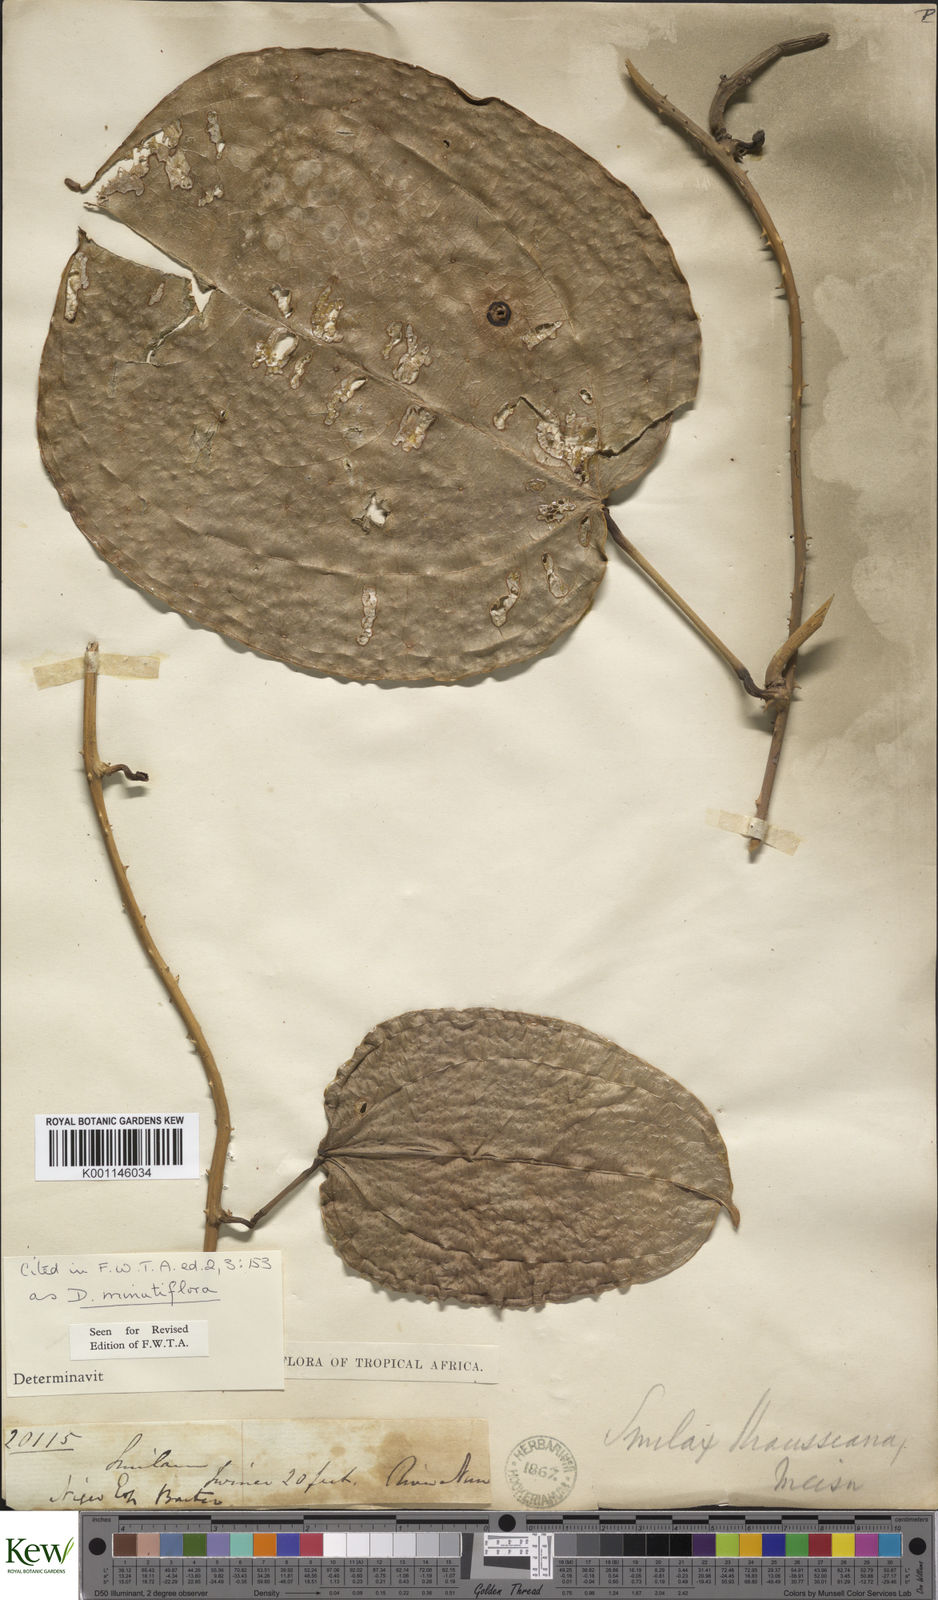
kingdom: Plantae
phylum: Tracheophyta
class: Liliopsida
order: Dioscoreales
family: Dioscoreaceae
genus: Dioscorea
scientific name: Dioscorea minutiflora
